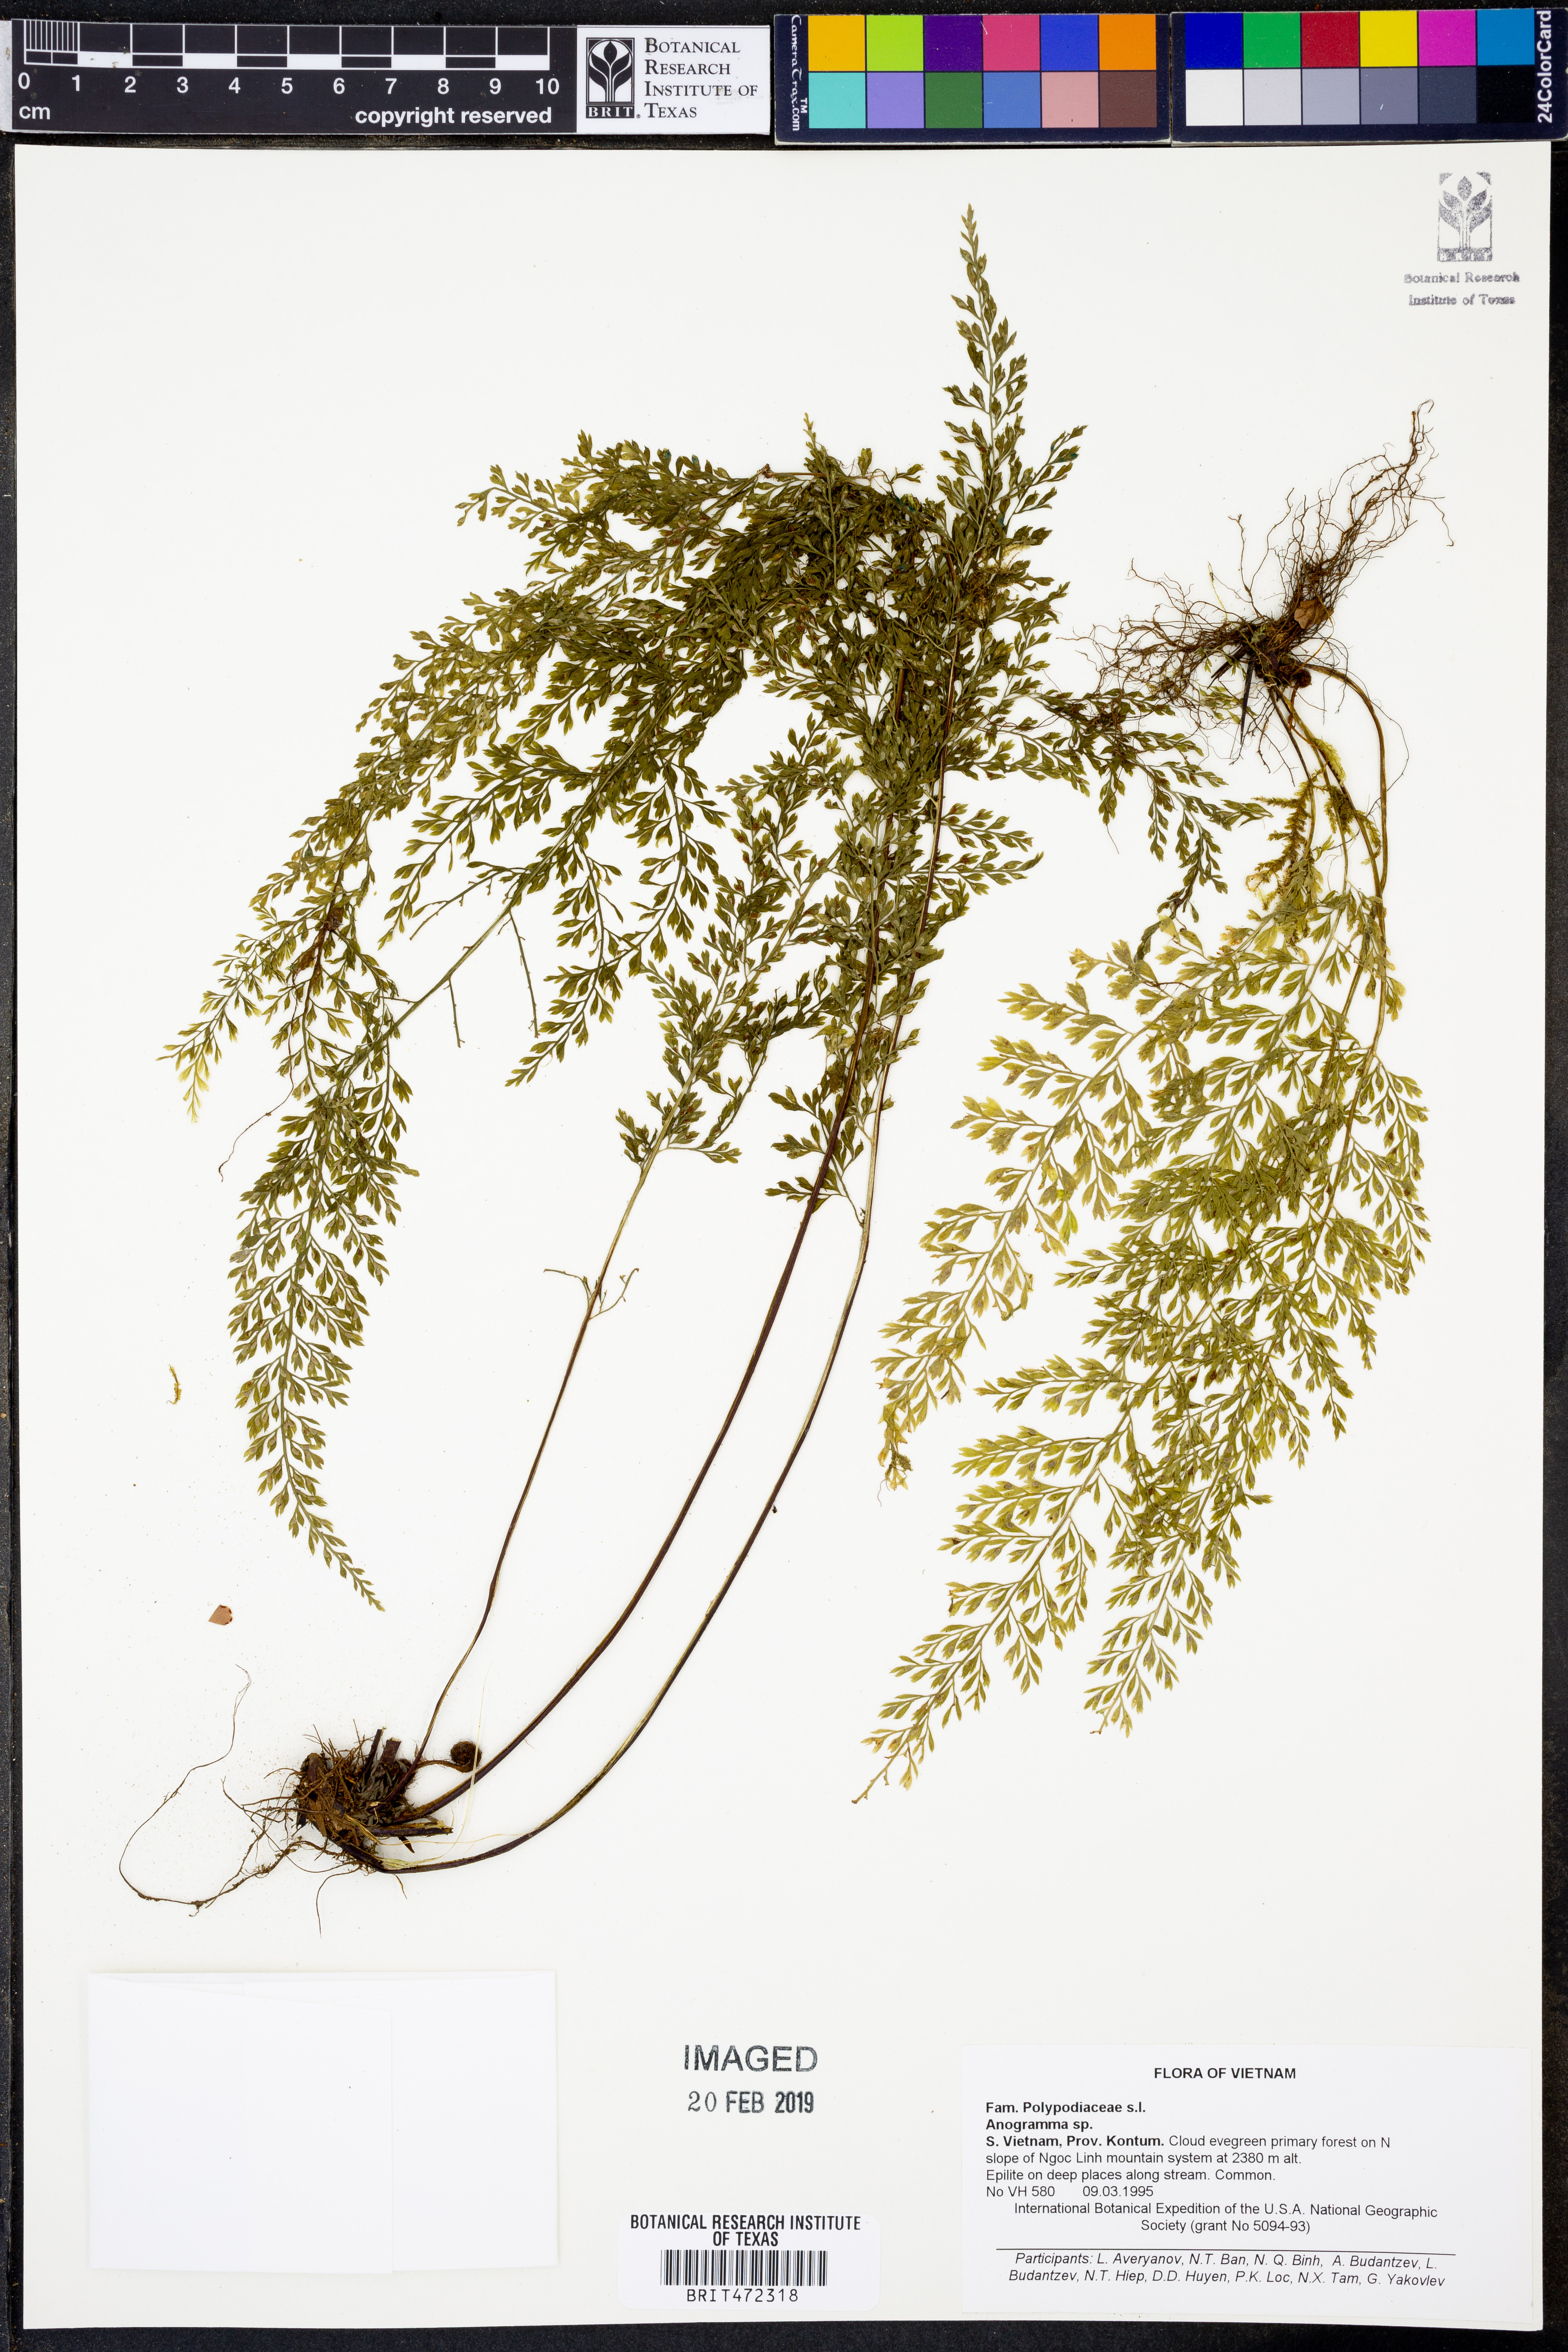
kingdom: Plantae
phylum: Tracheophyta
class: Polypodiopsida
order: Polypodiales
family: Pteridaceae
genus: Anogramma
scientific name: Anogramma
